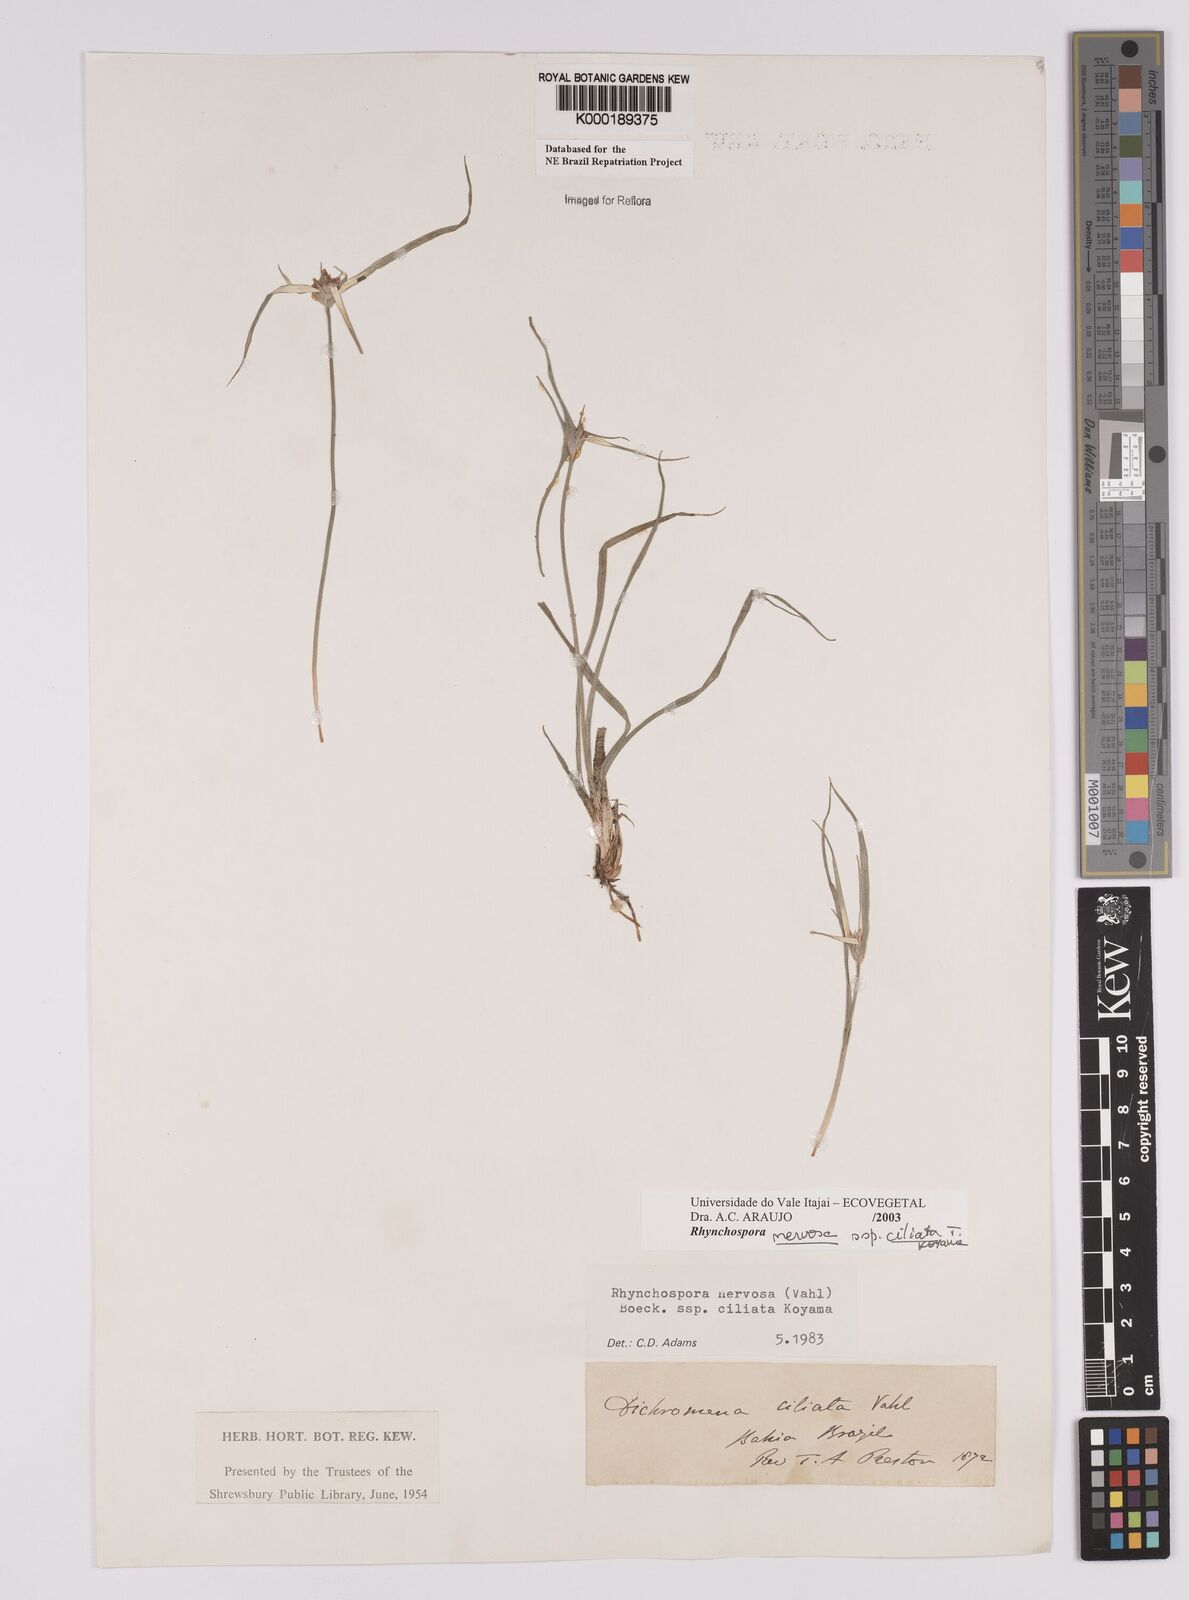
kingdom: Plantae
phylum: Tracheophyta
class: Liliopsida
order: Poales
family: Cyperaceae
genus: Rhynchospora
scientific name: Rhynchospora pura
